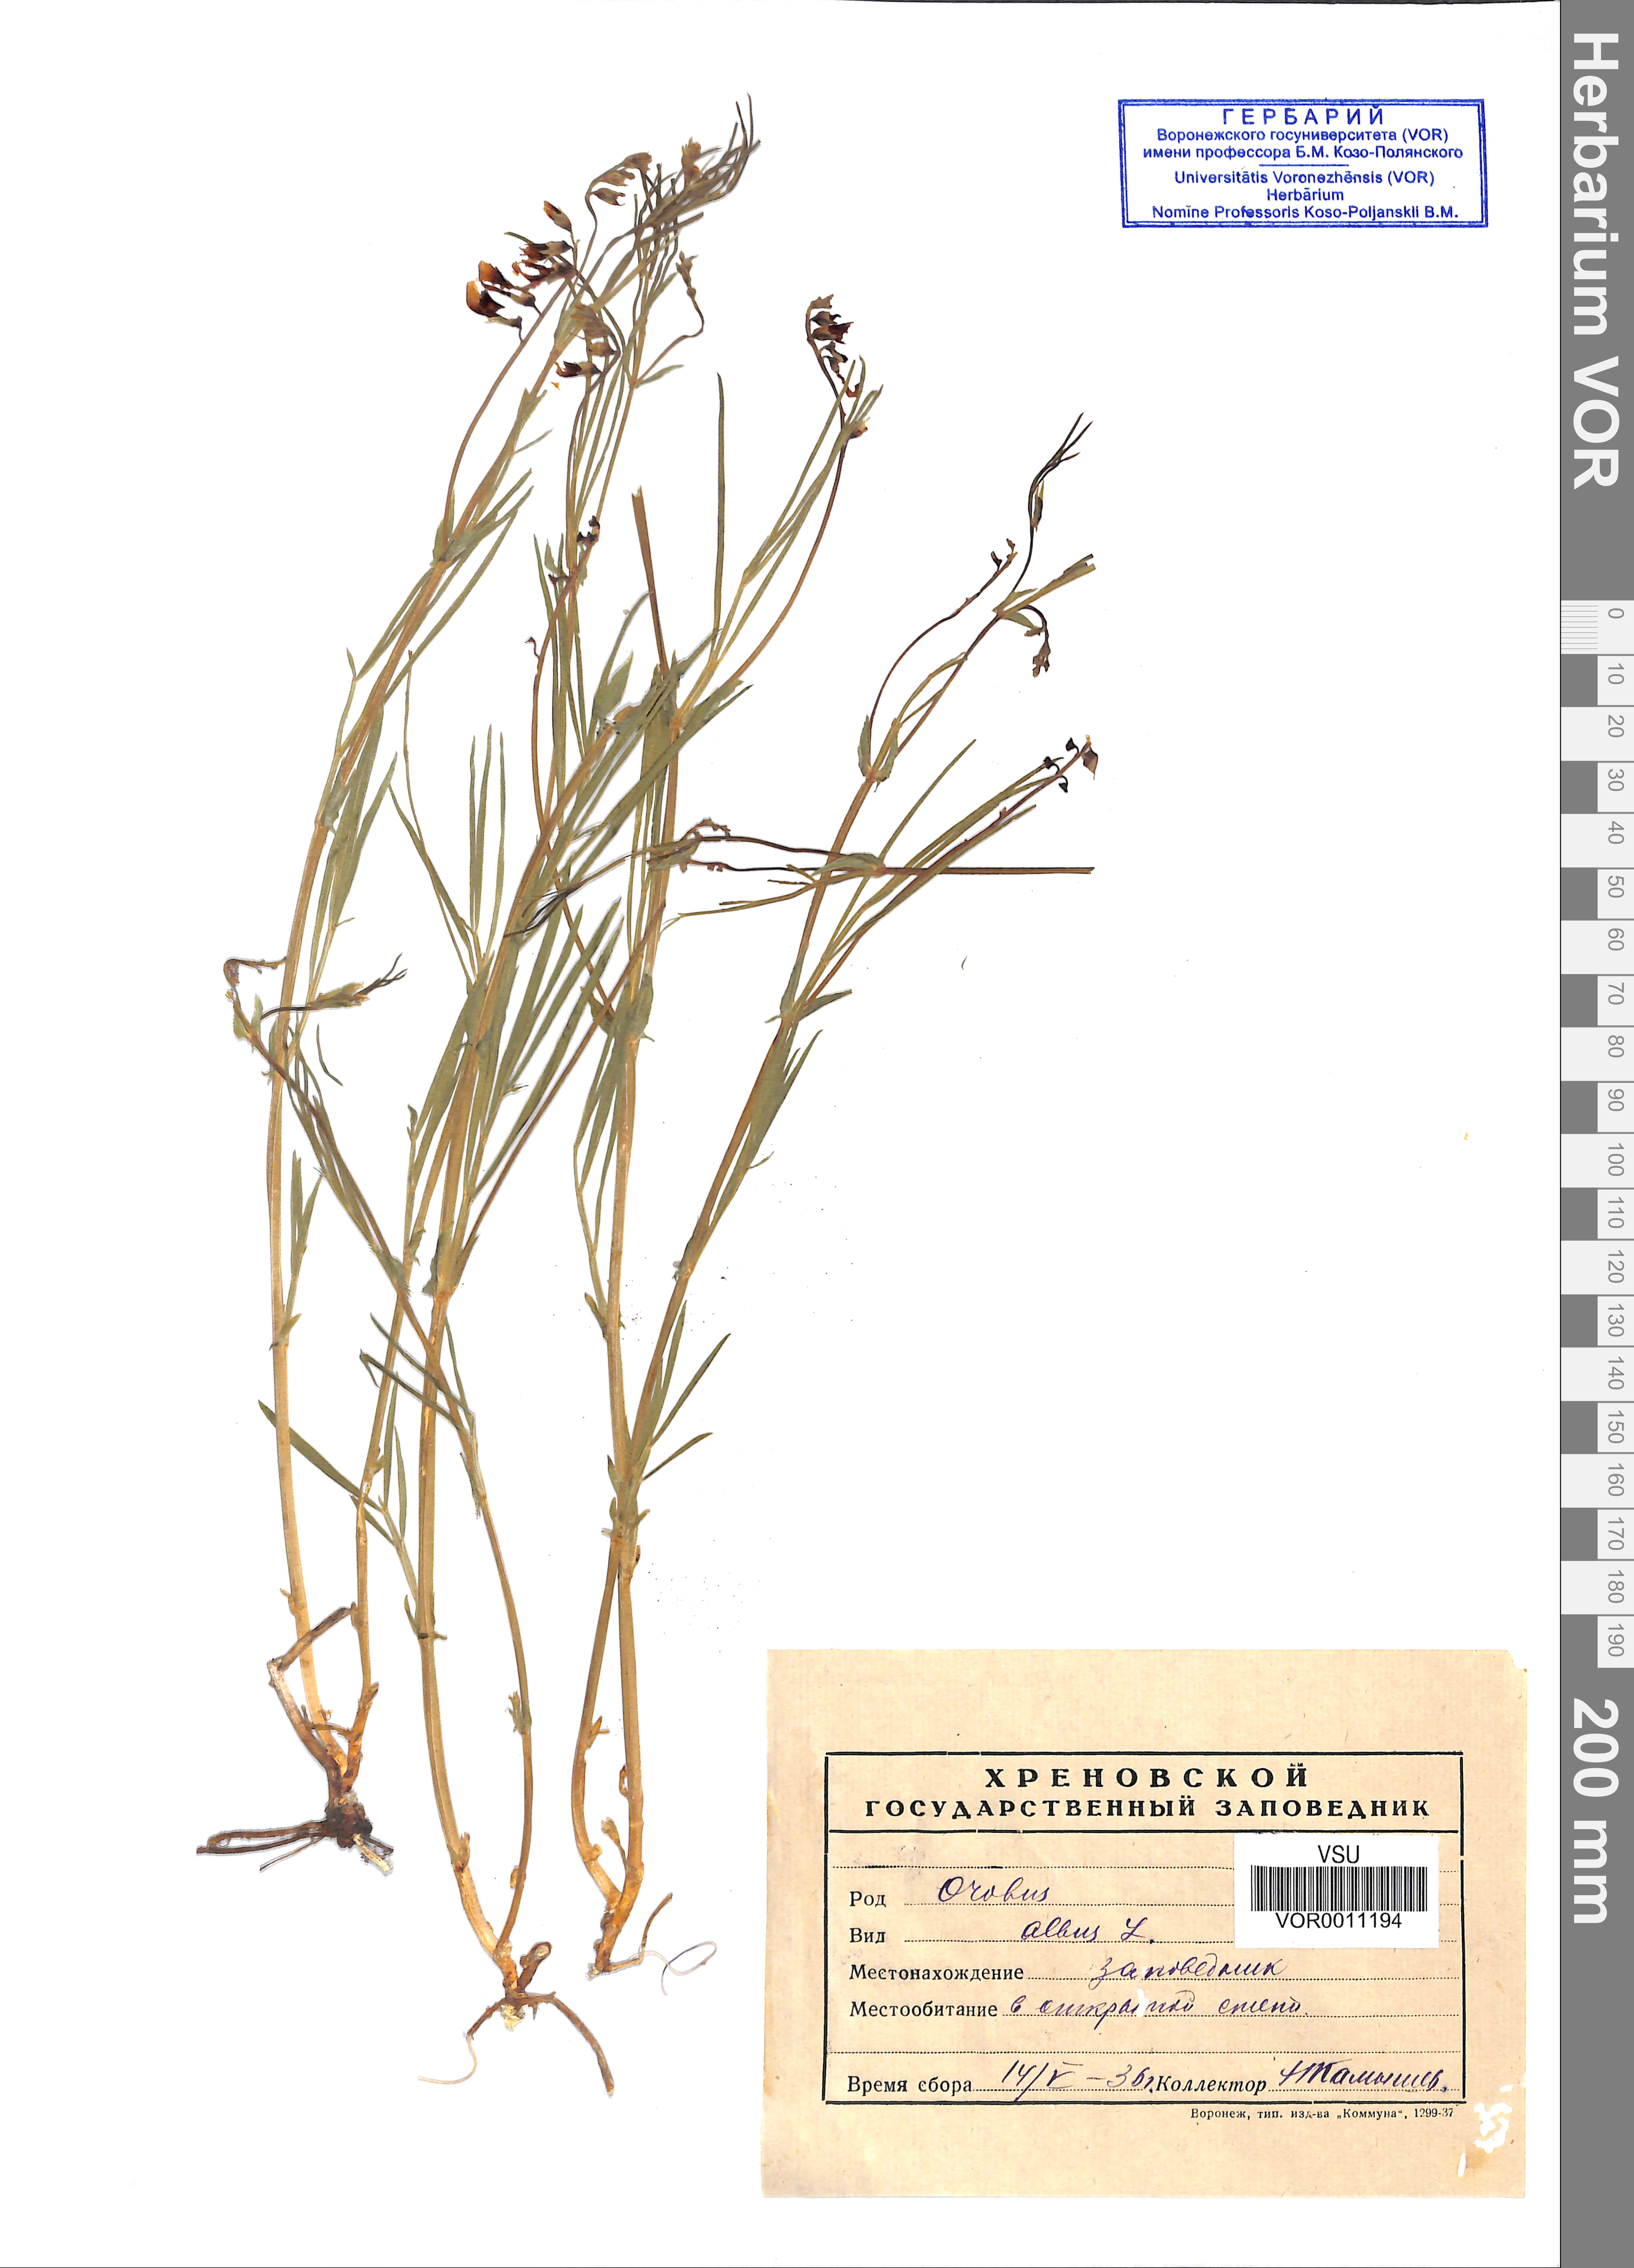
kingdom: Plantae
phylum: Tracheophyta
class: Magnoliopsida
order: Fabales
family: Fabaceae
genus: Lathyrus
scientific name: Lathyrus pannonicus
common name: Pea
